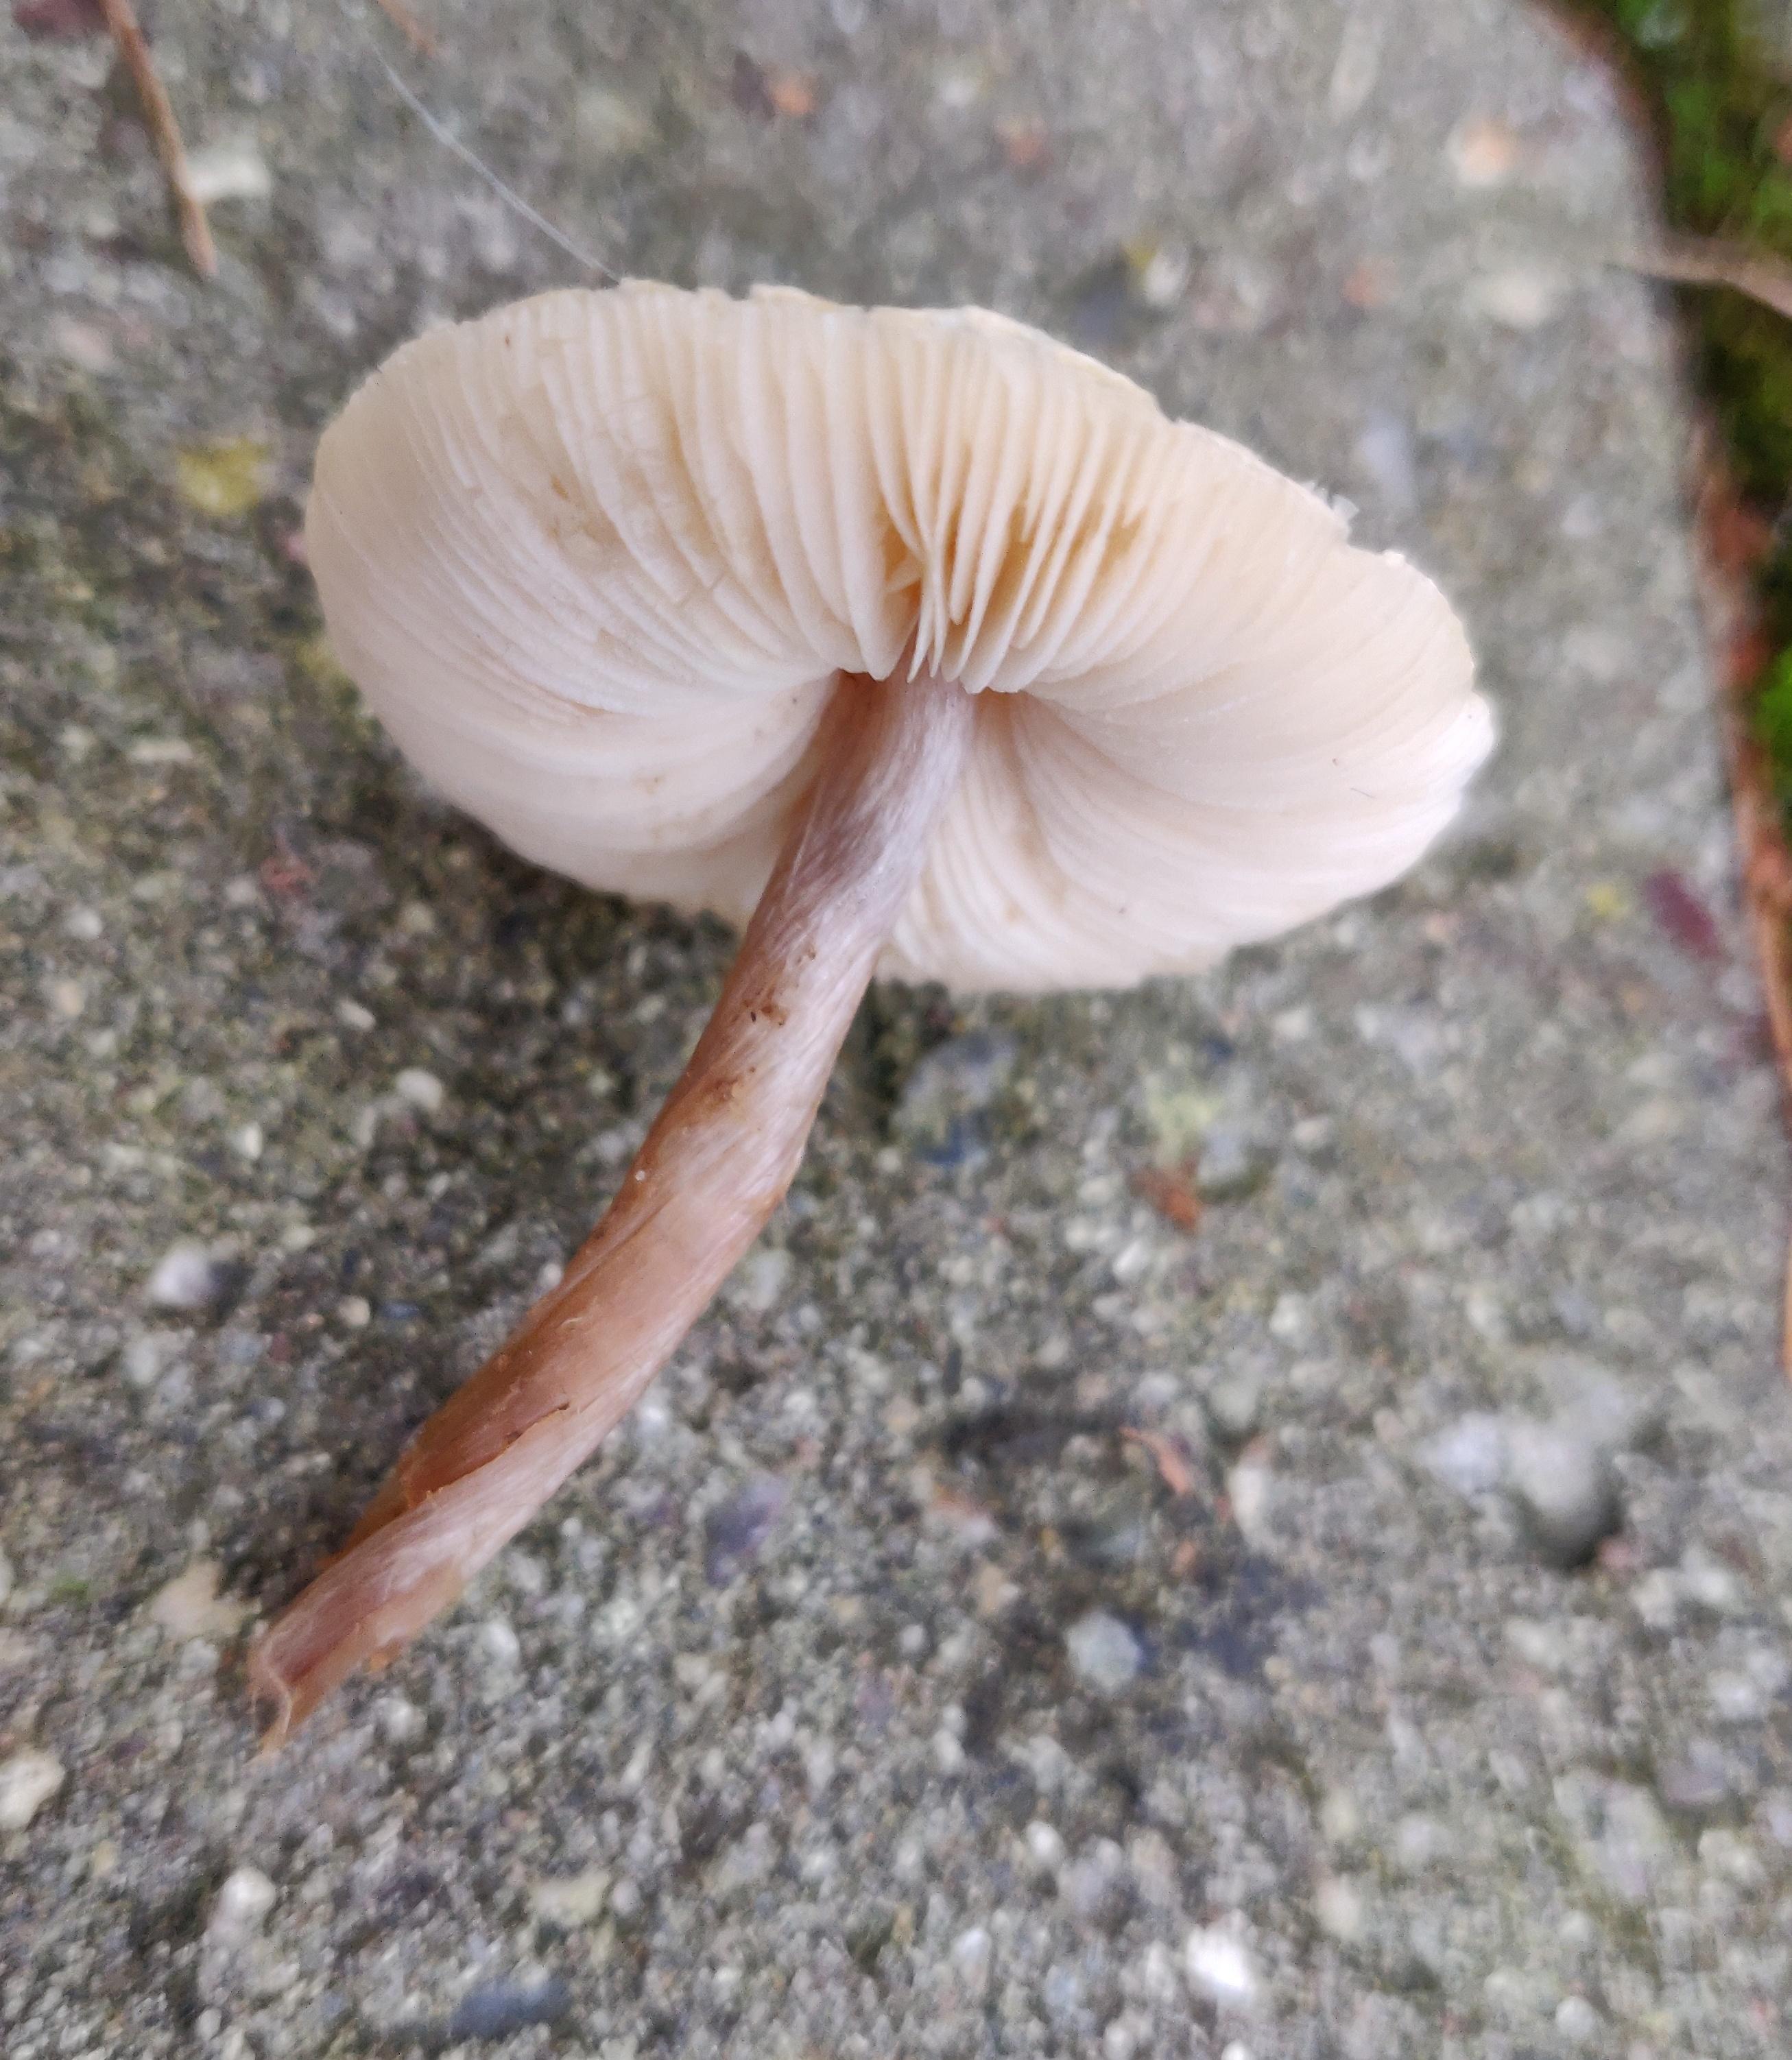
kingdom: Fungi
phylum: Basidiomycota
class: Agaricomycetes
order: Agaricales
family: Agaricaceae
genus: Lepiota
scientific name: Lepiota
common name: parasolhat
